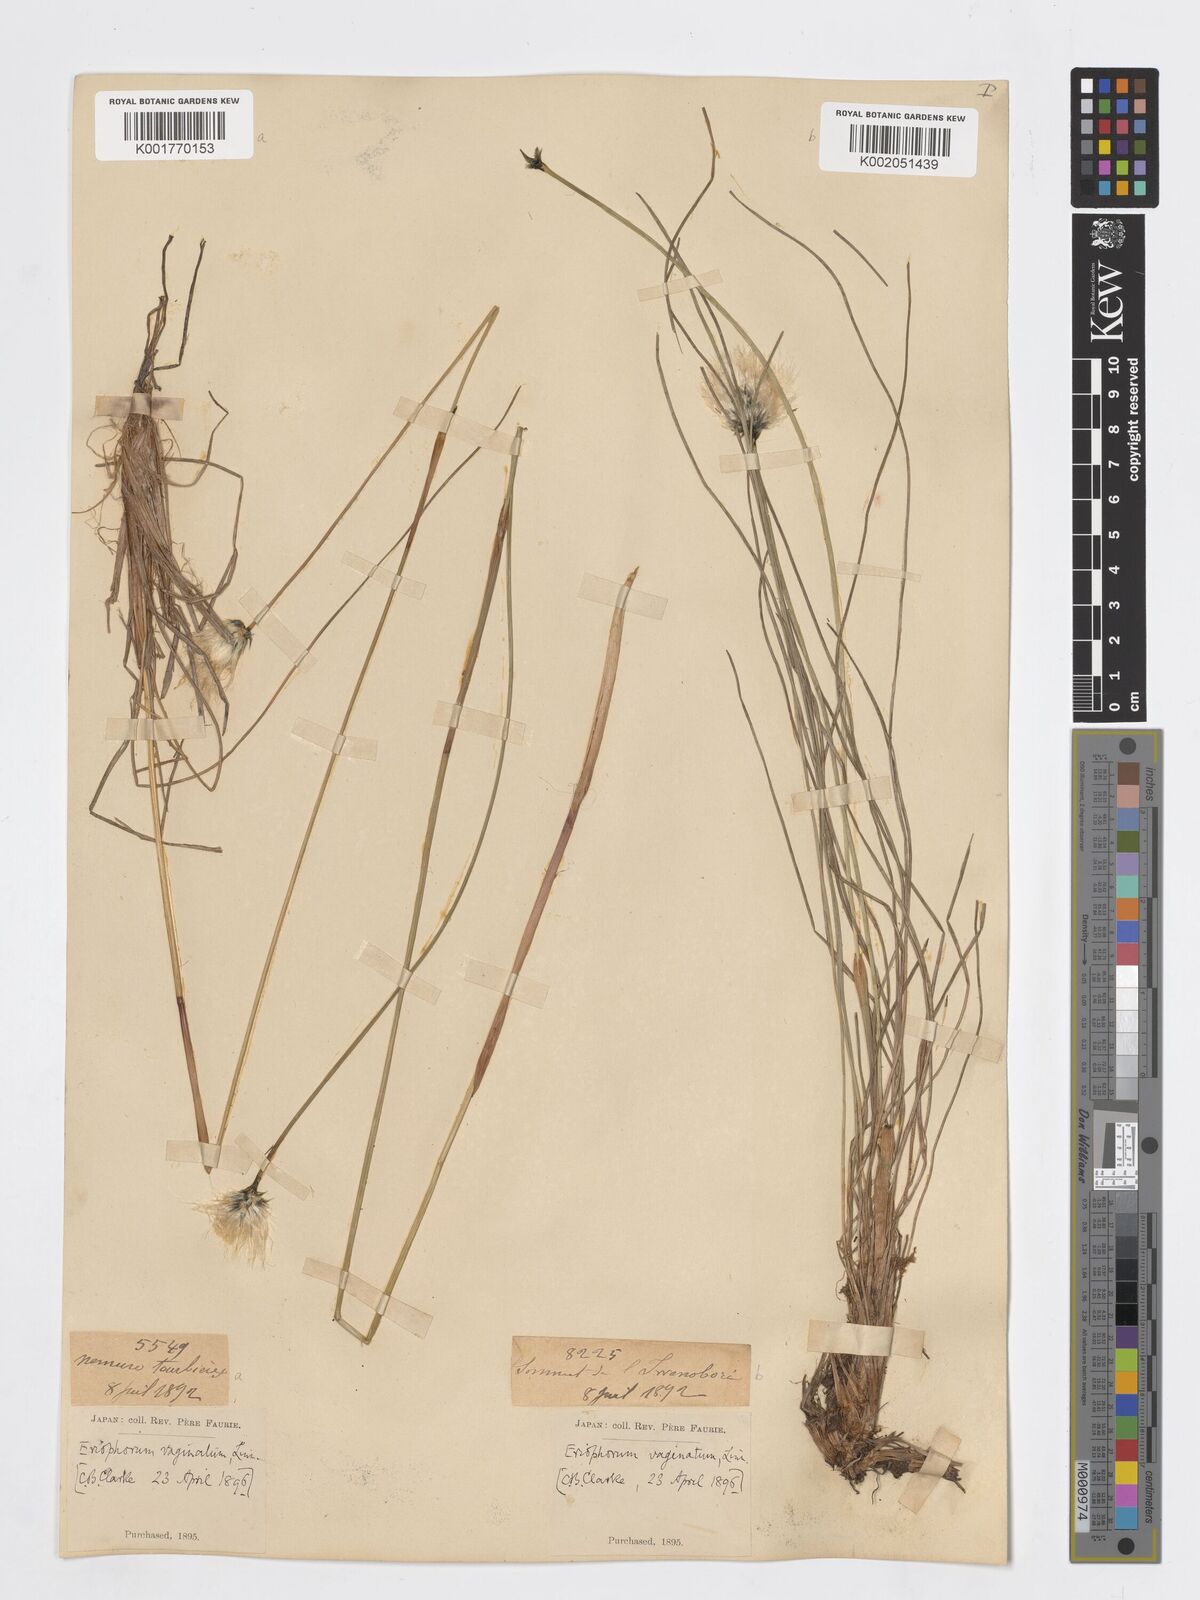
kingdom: Plantae
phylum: Tracheophyta
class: Liliopsida
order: Poales
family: Cyperaceae
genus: Eriophorum
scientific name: Eriophorum vaginatum
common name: Hare's-tail cottongrass
